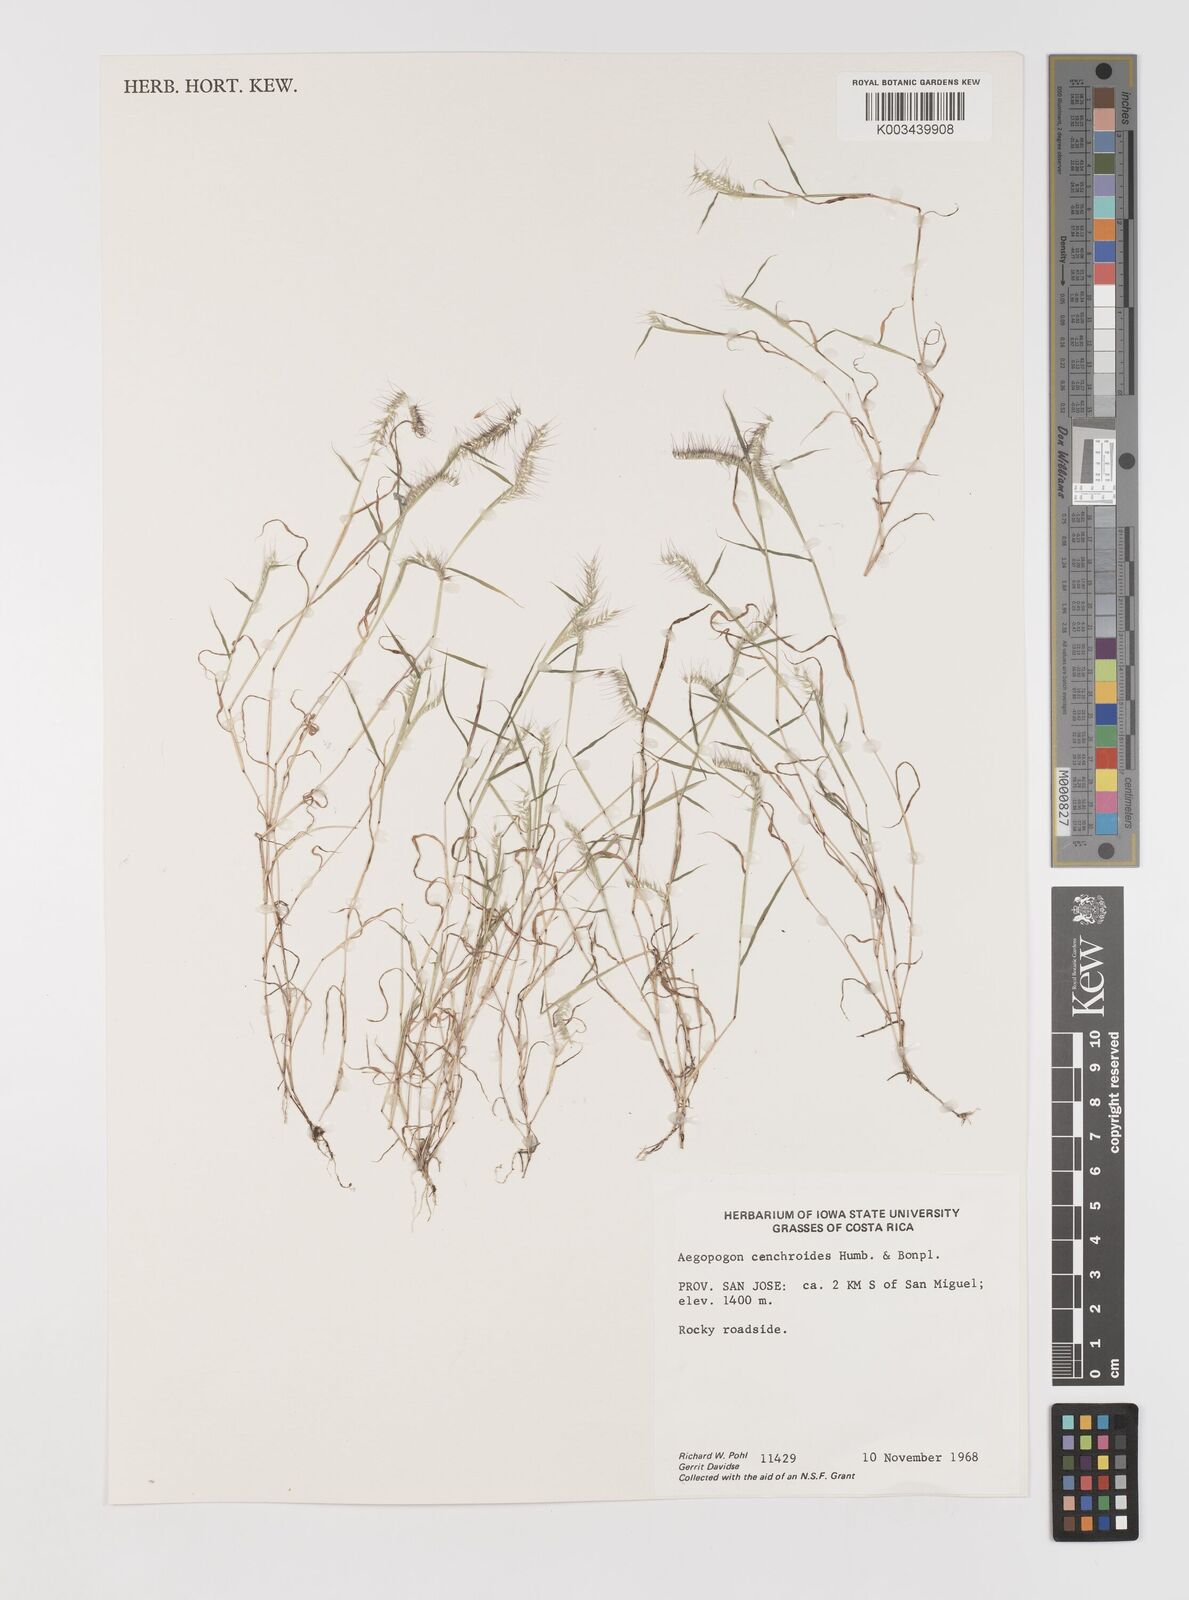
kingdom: Plantae
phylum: Tracheophyta
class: Liliopsida
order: Poales
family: Poaceae
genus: Muhlenbergia
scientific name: Muhlenbergia cenchroides
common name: Relaxgrass
